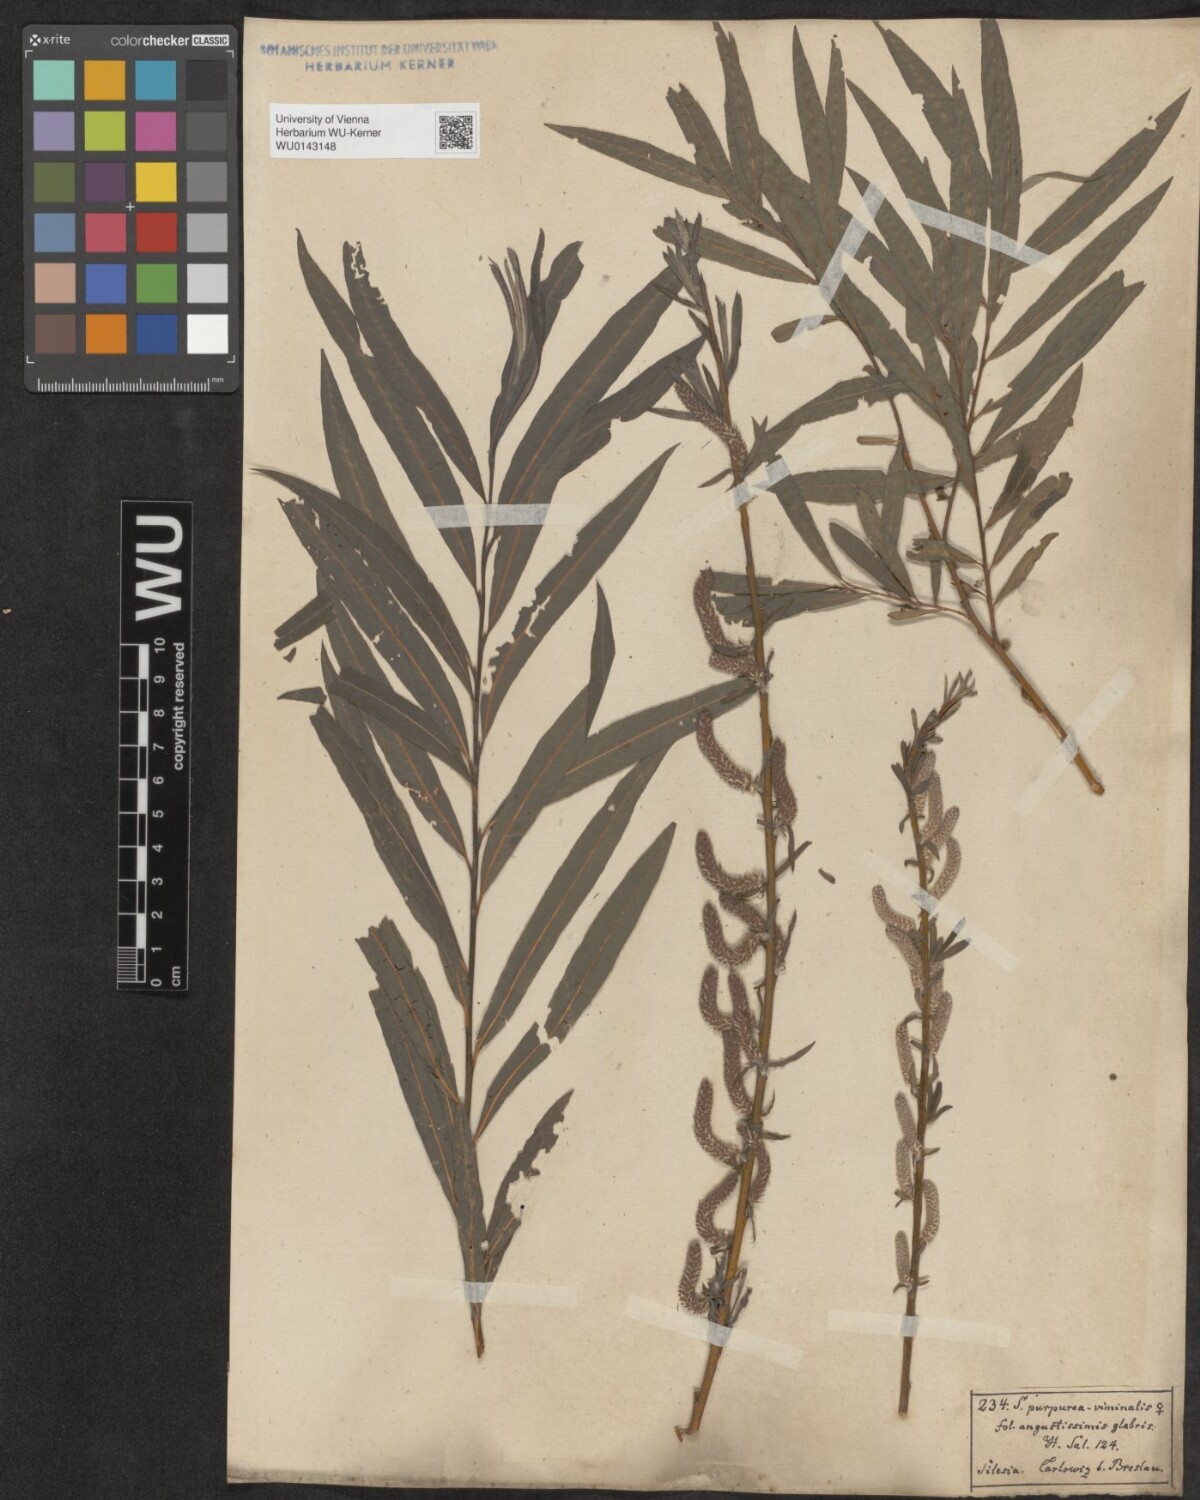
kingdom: Plantae
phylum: Tracheophyta
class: Magnoliopsida
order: Malpighiales
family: Salicaceae
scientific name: Salicaceae
